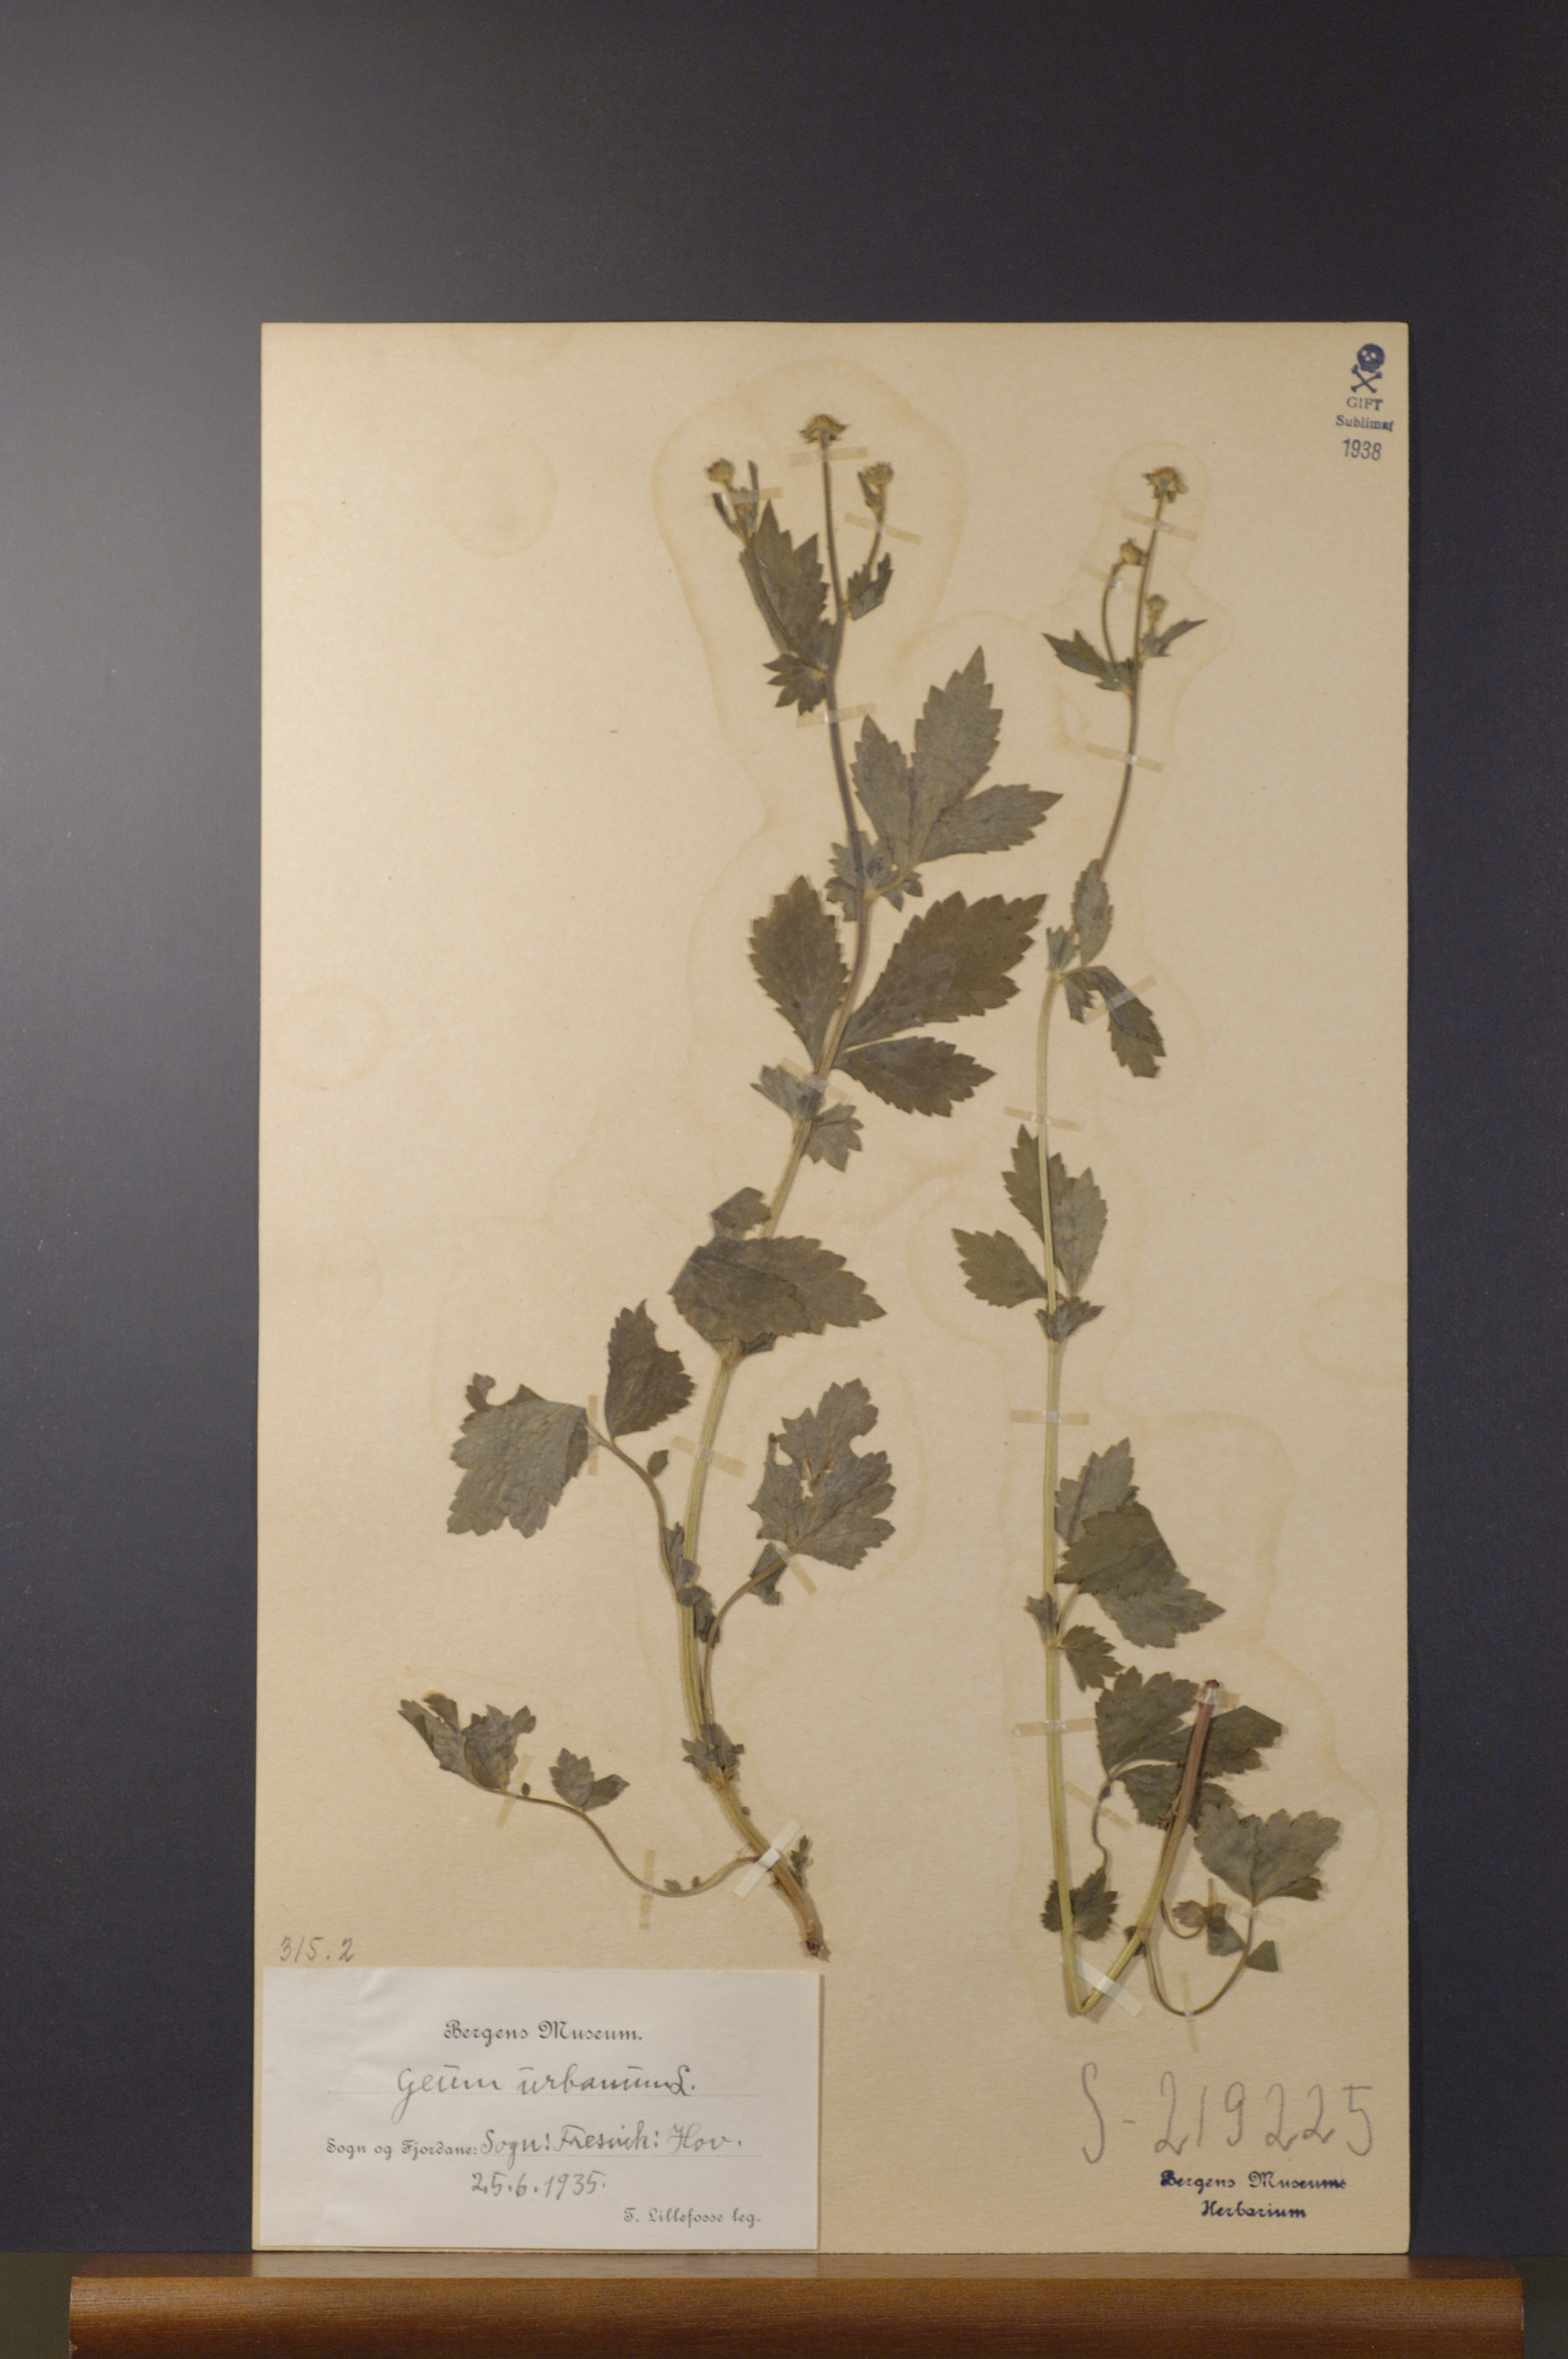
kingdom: Plantae
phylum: Tracheophyta
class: Magnoliopsida
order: Rosales
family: Rosaceae
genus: Geum
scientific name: Geum urbanum
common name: Wood avens
